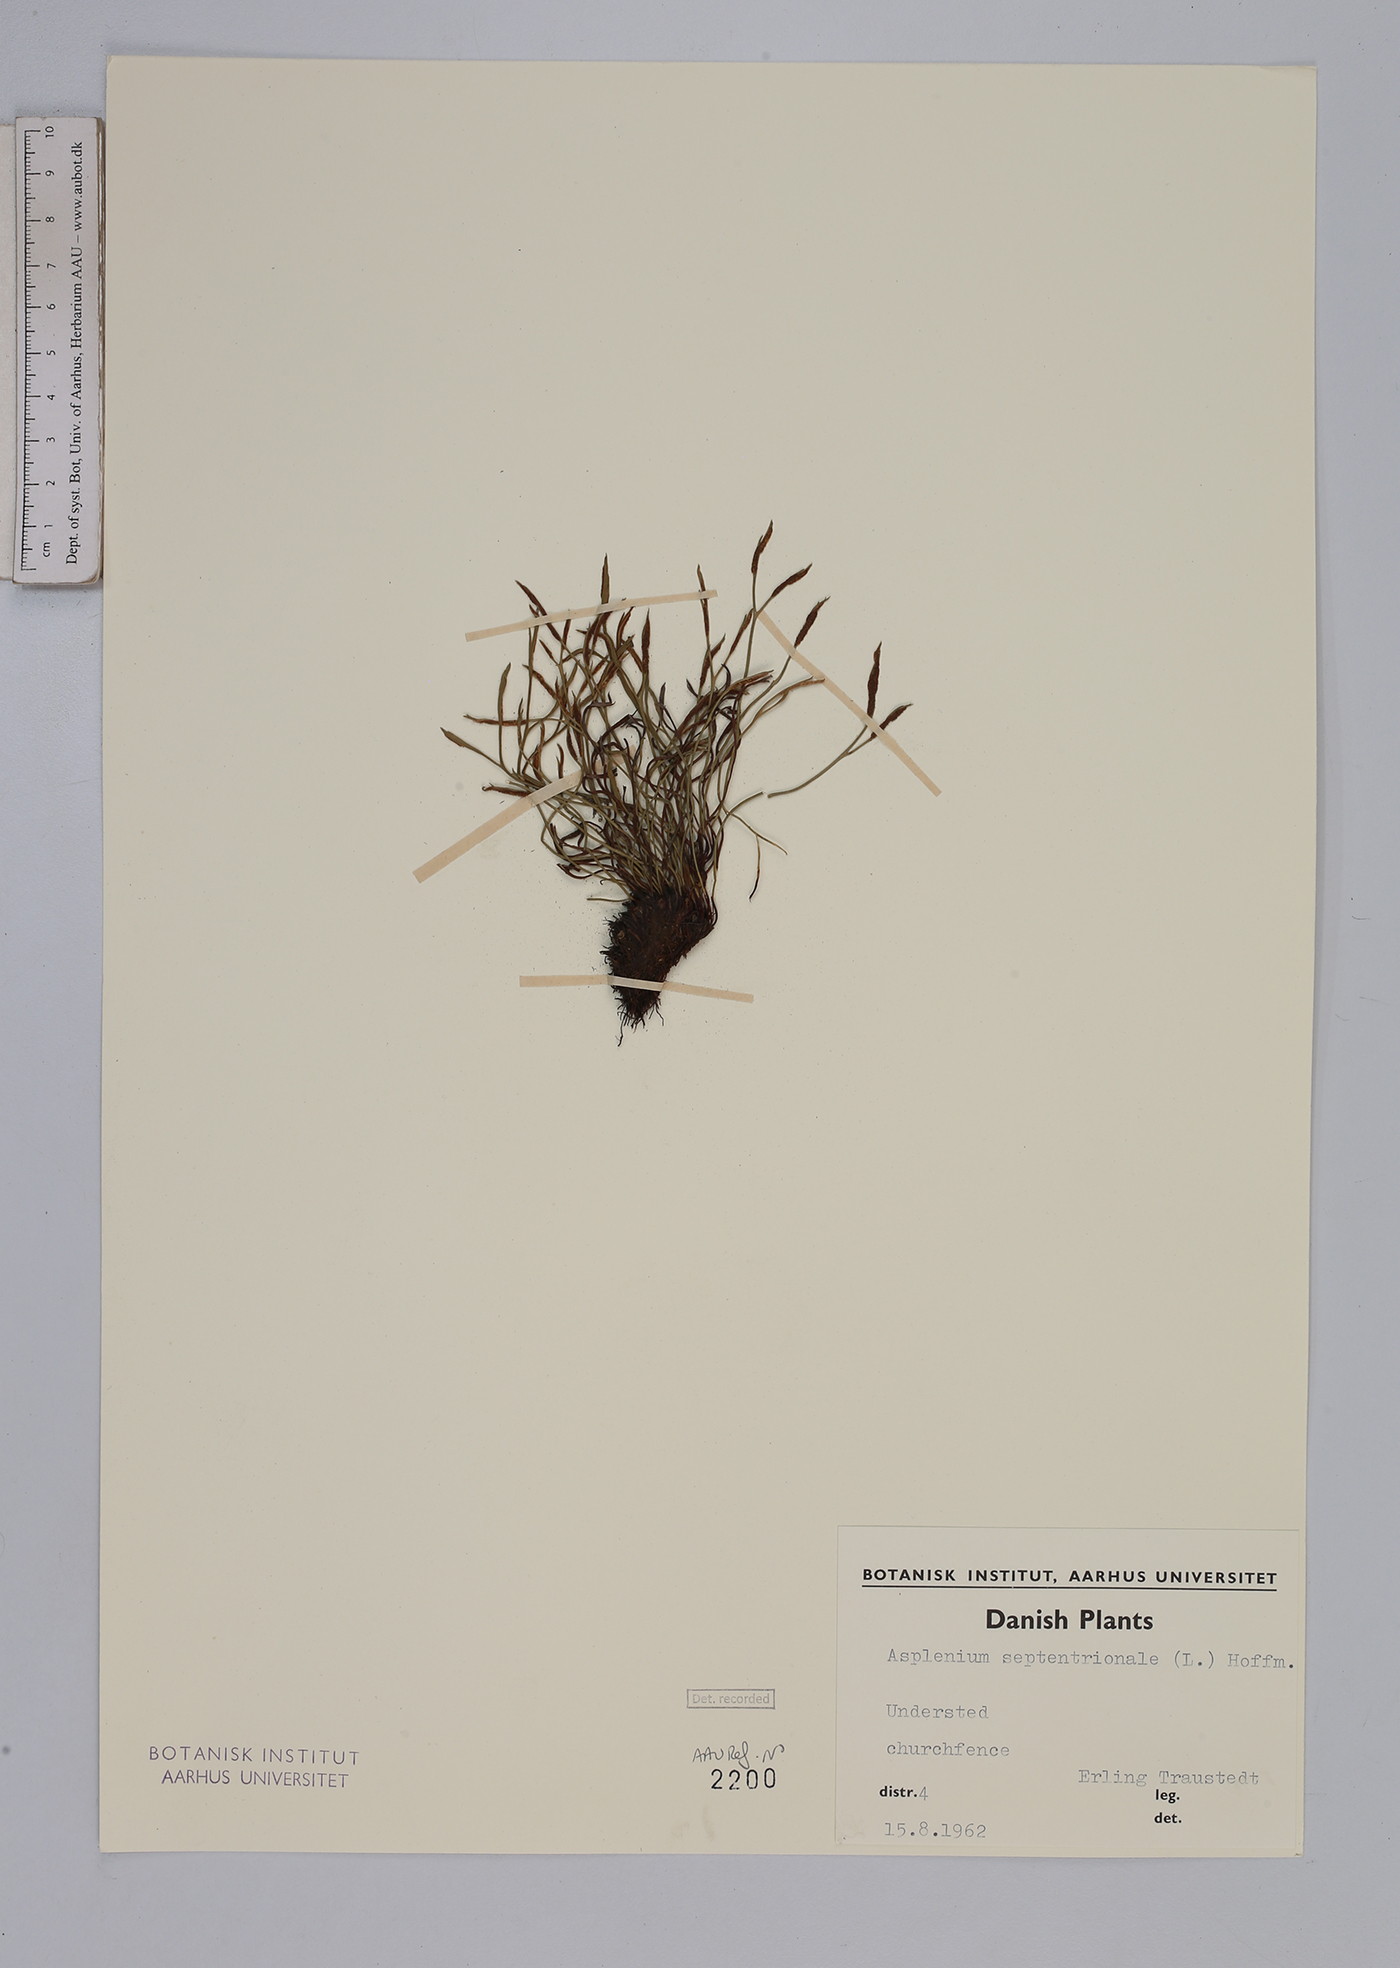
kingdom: Plantae
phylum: Tracheophyta
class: Polypodiopsida
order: Polypodiales
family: Aspleniaceae
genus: Asplenium
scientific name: Asplenium septentrionale
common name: Forked spleenwort
